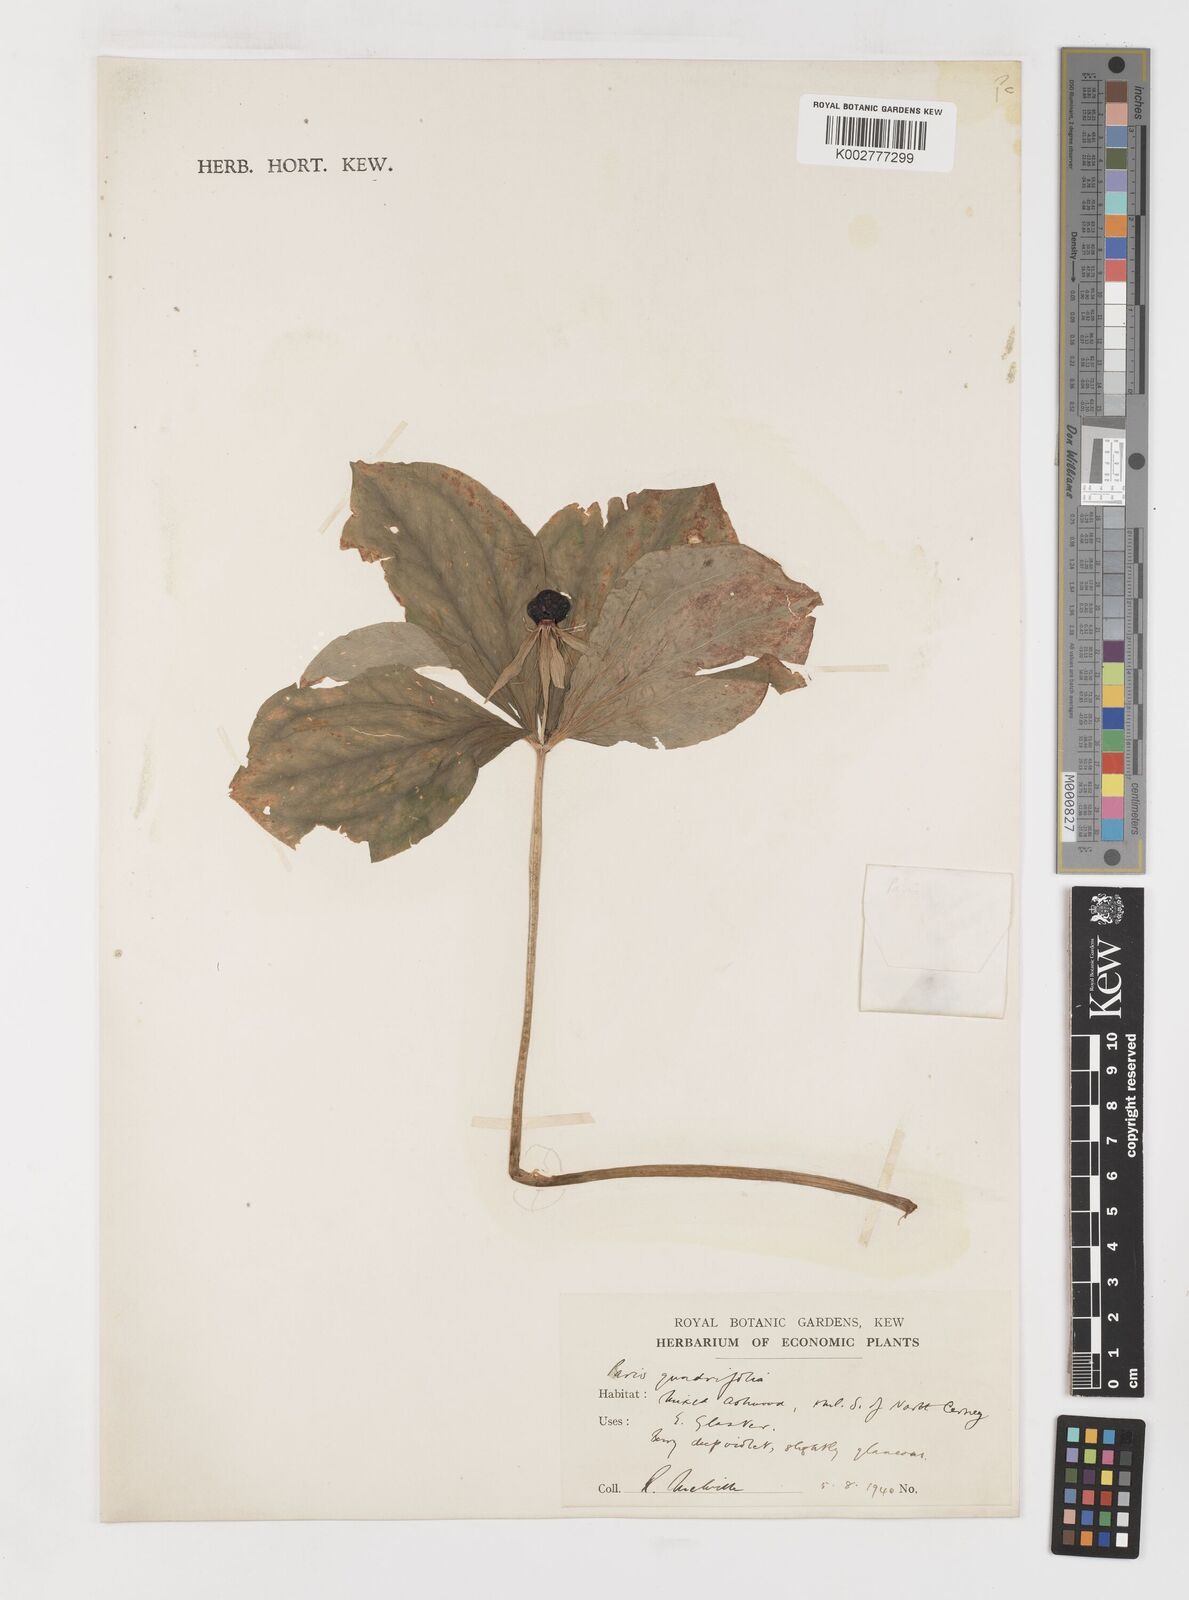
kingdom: Plantae
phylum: Tracheophyta
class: Liliopsida
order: Liliales
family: Melanthiaceae
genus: Paris
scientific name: Paris quadrifolia
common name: Herb-paris
